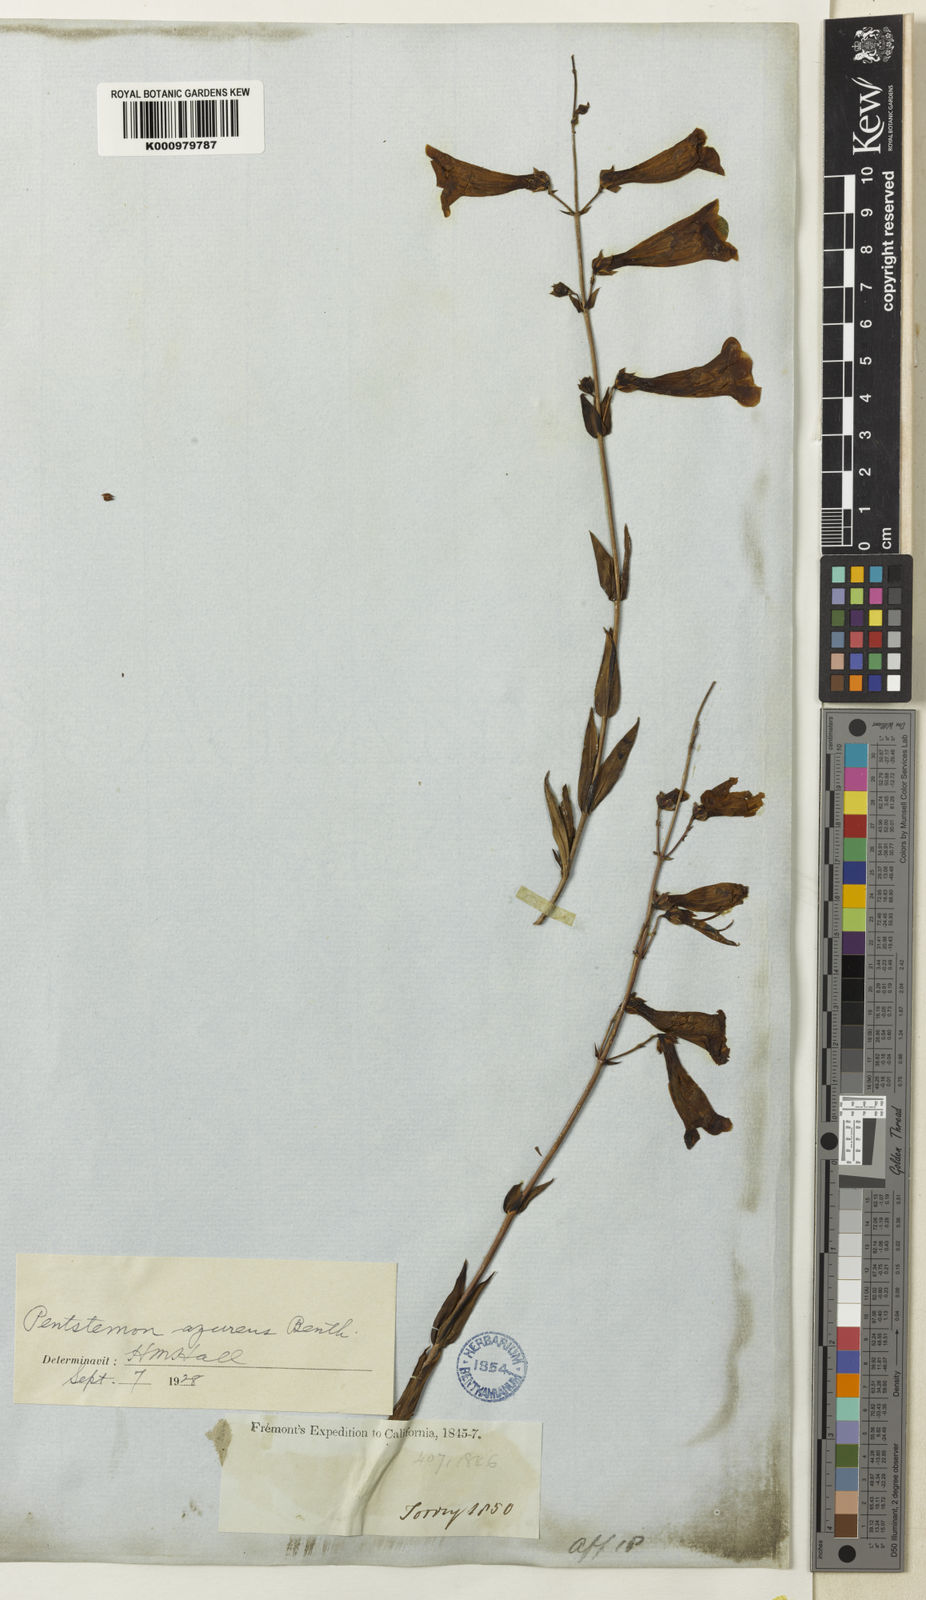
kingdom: Plantae
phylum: Tracheophyta
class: Magnoliopsida
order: Lamiales
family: Plantaginaceae
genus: Penstemon
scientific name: Penstemon azureus
